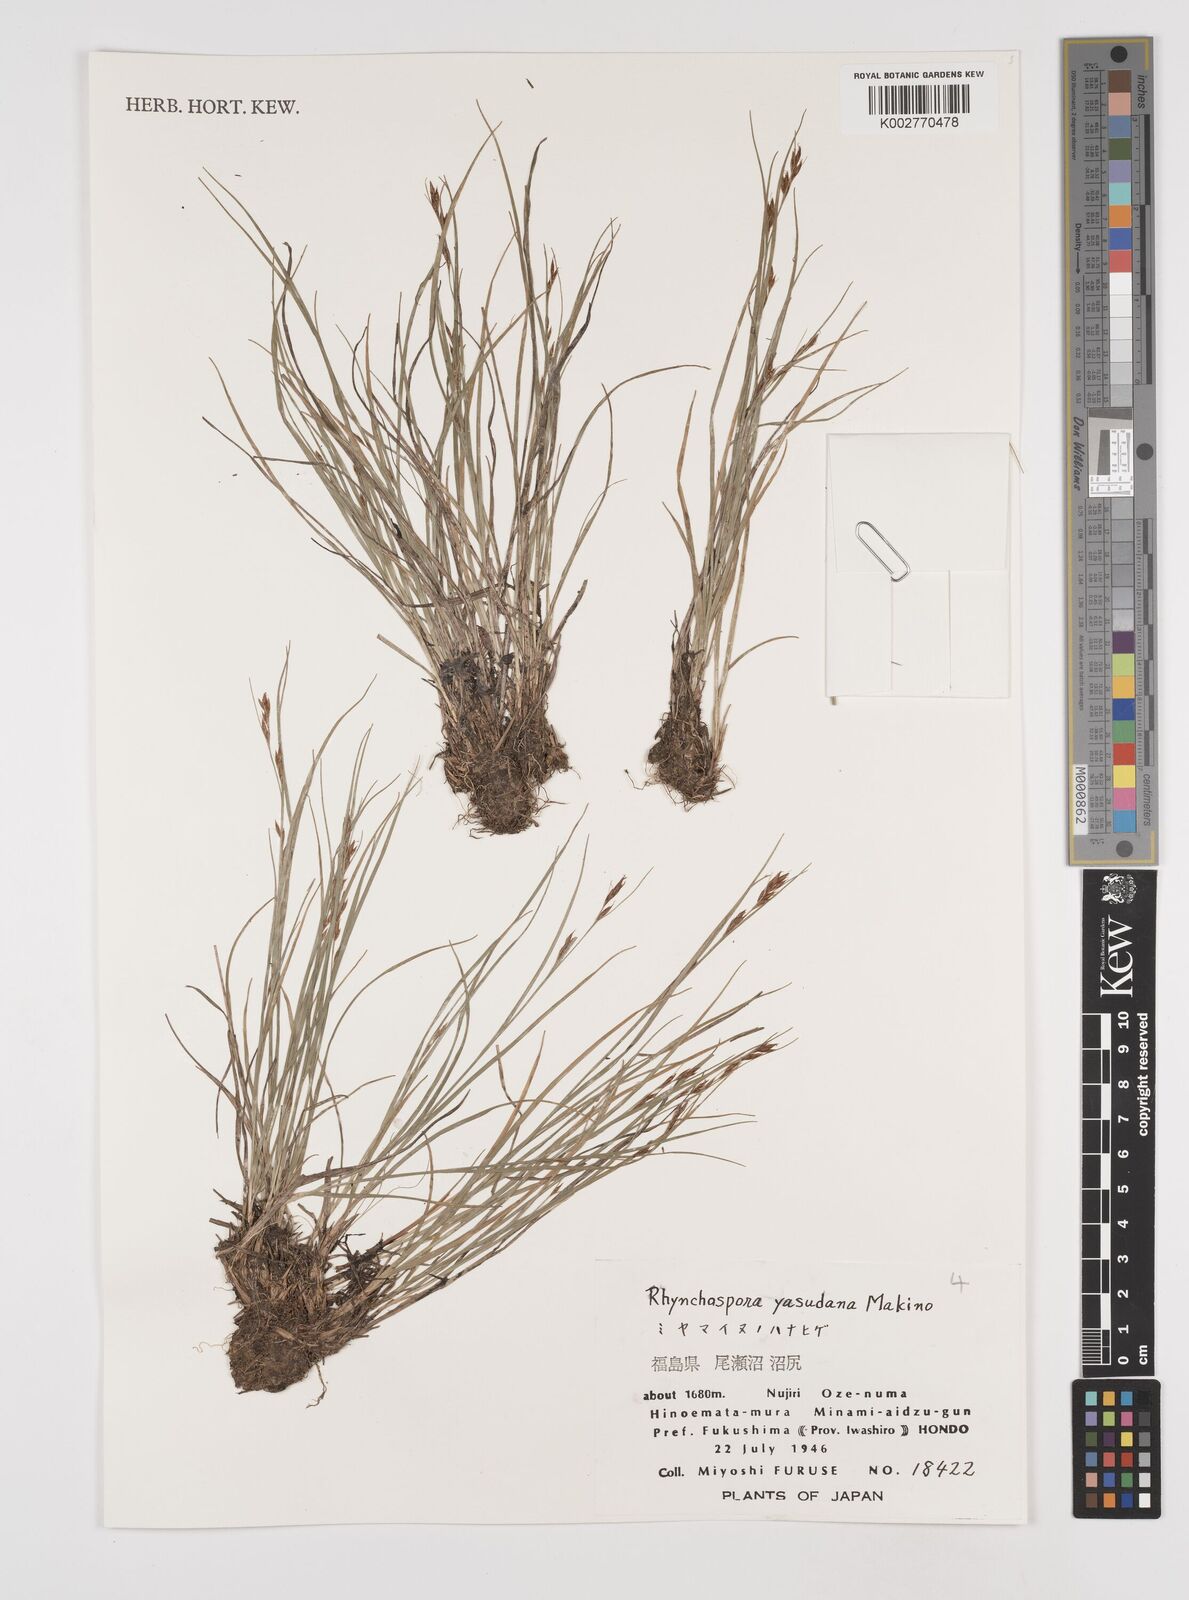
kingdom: Plantae
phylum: Tracheophyta
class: Liliopsida
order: Poales
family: Cyperaceae
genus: Rhynchospora
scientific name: Rhynchospora fujiiana
